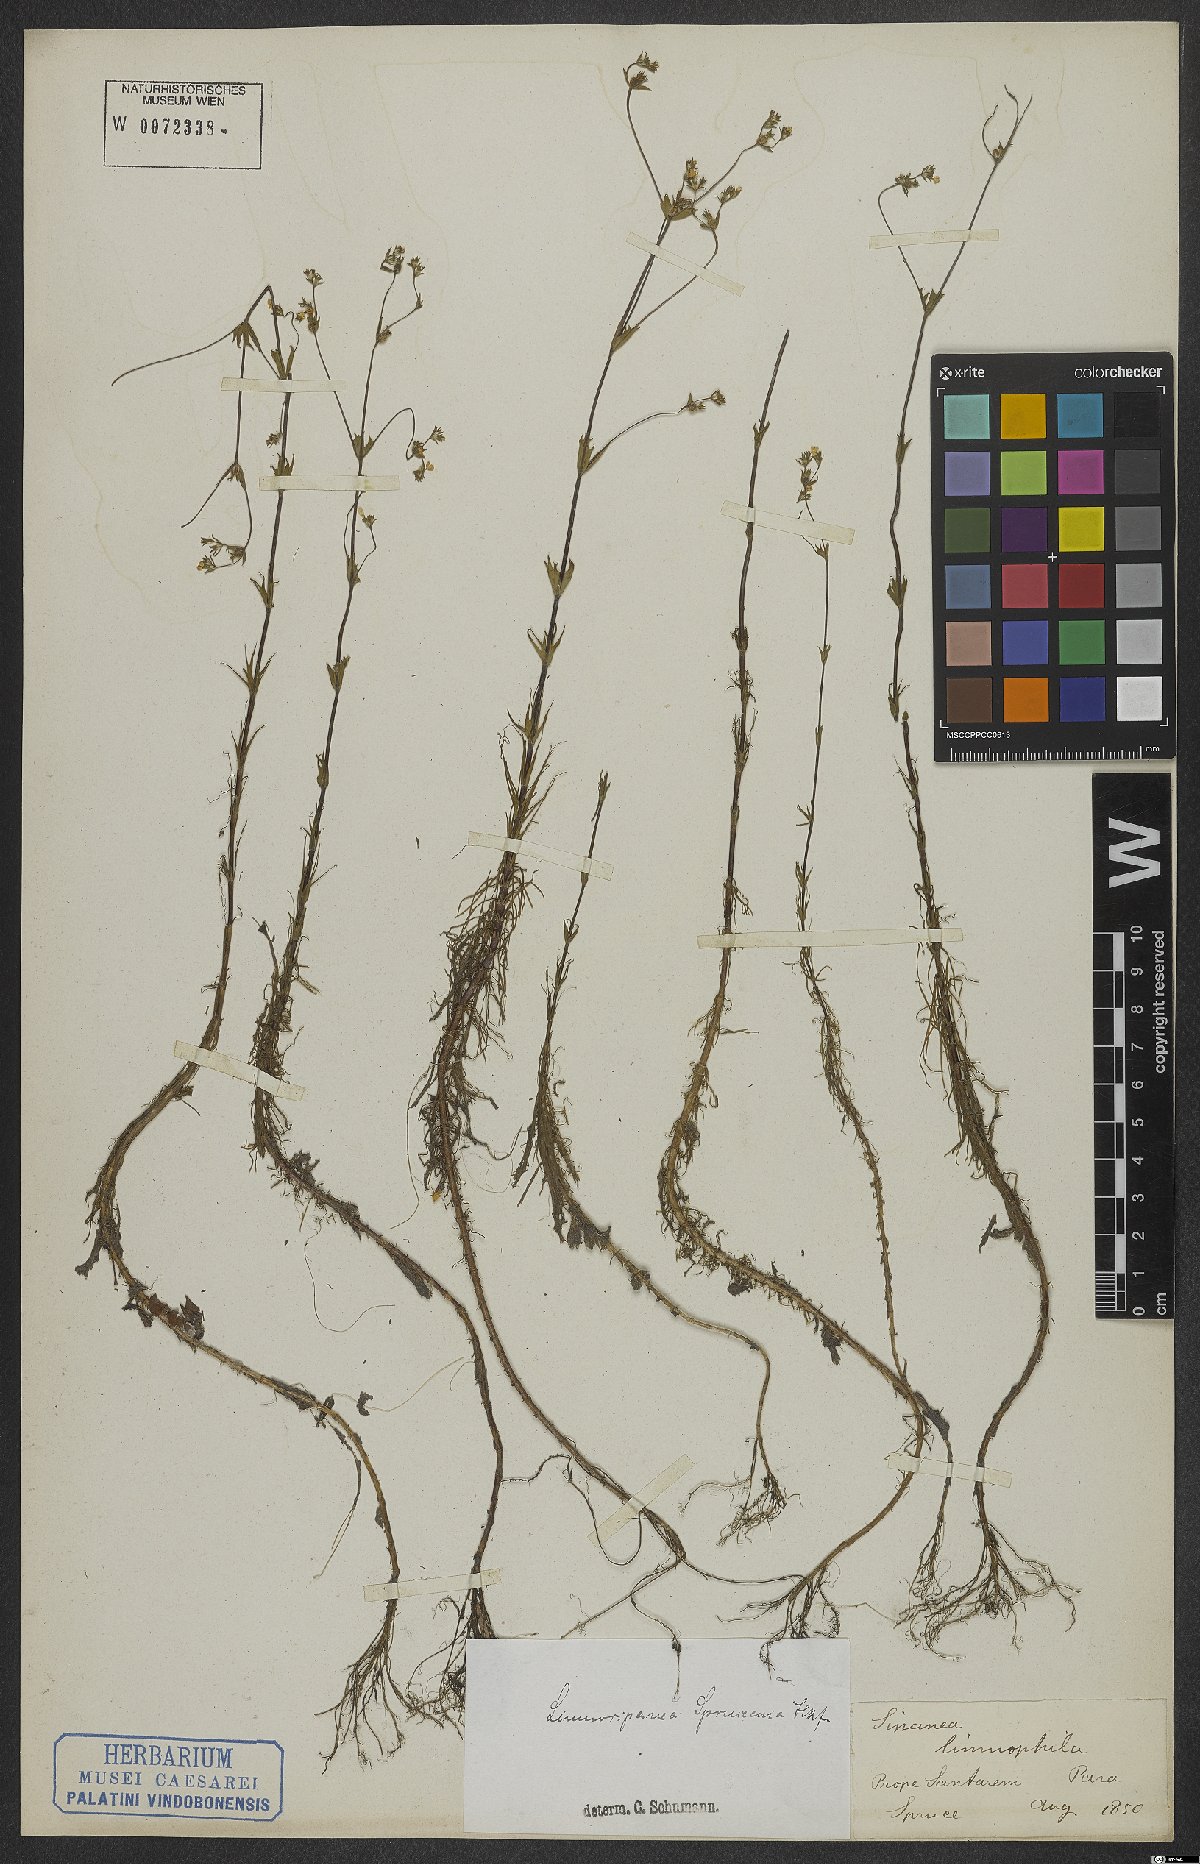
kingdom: Plantae
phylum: Tracheophyta
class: Magnoliopsida
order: Gentianales
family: Rubiaceae
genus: Limnosipanea
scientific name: Limnosipanea spruceana
